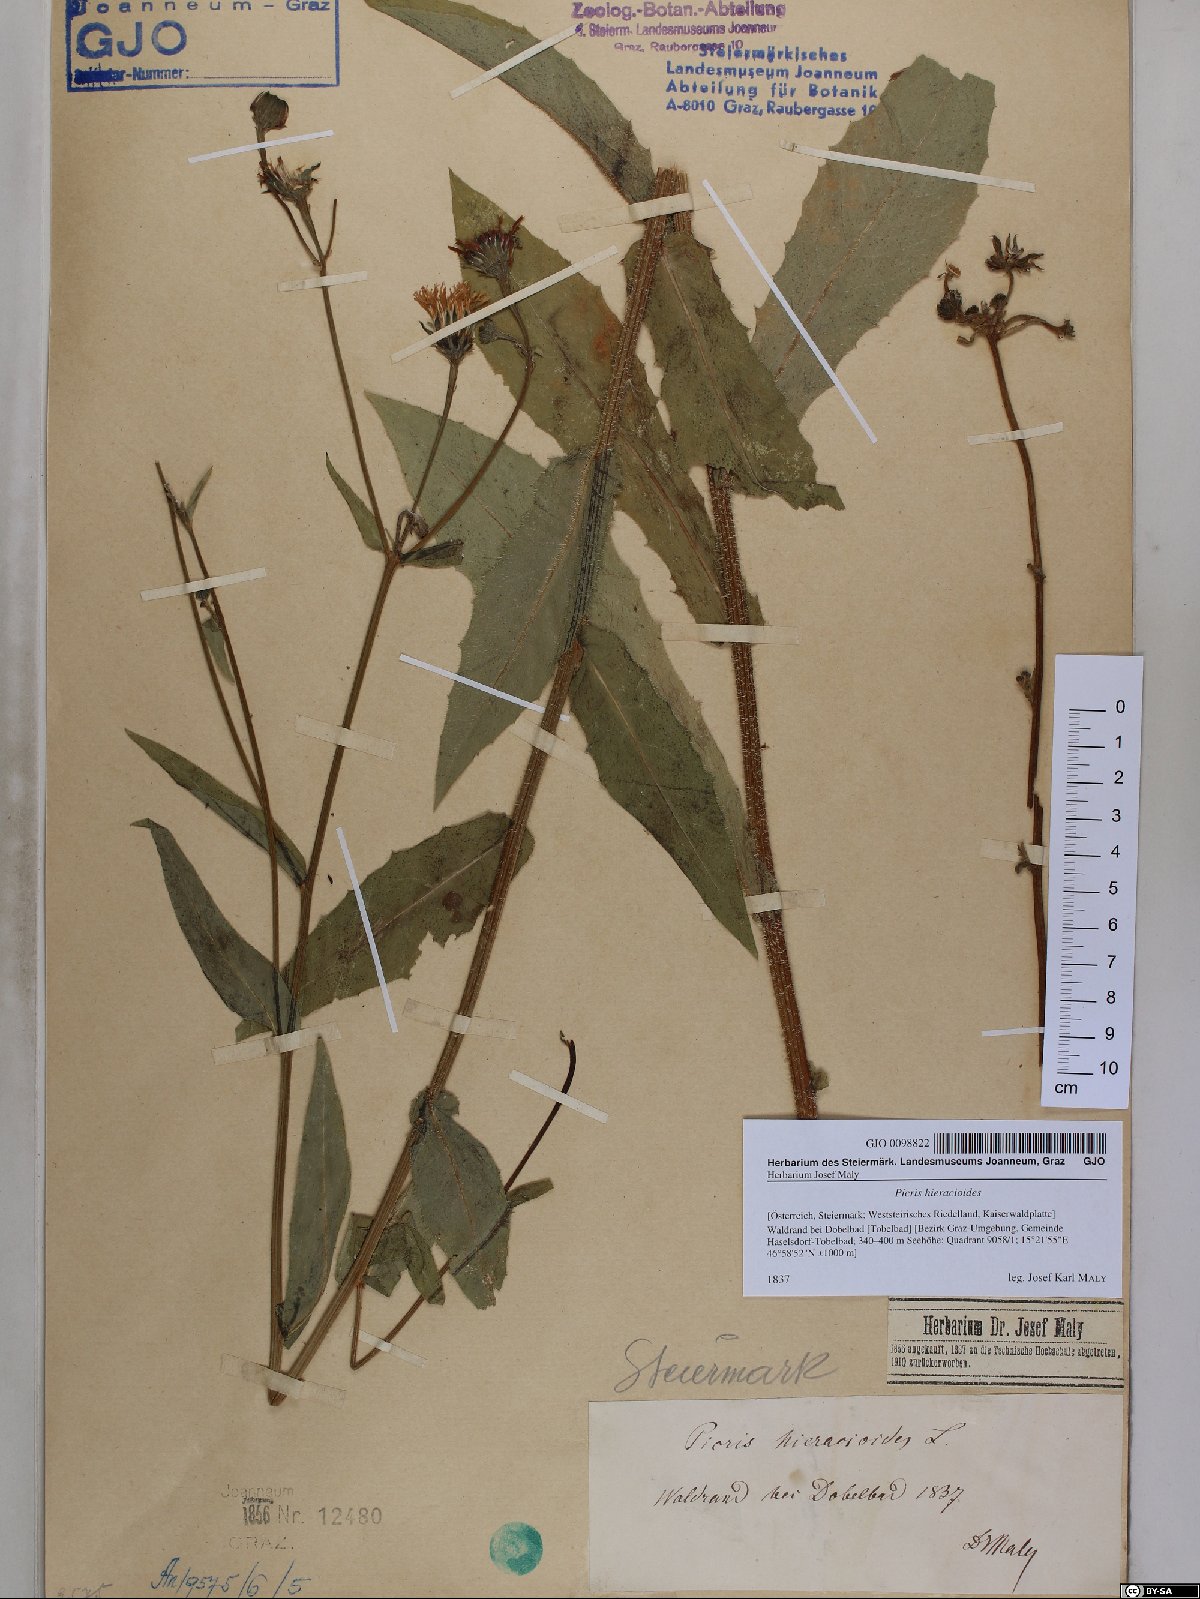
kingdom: Plantae
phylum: Tracheophyta
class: Magnoliopsida
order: Asterales
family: Asteraceae
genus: Picris
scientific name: Picris hieracioides
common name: Hawkweed oxtongue
